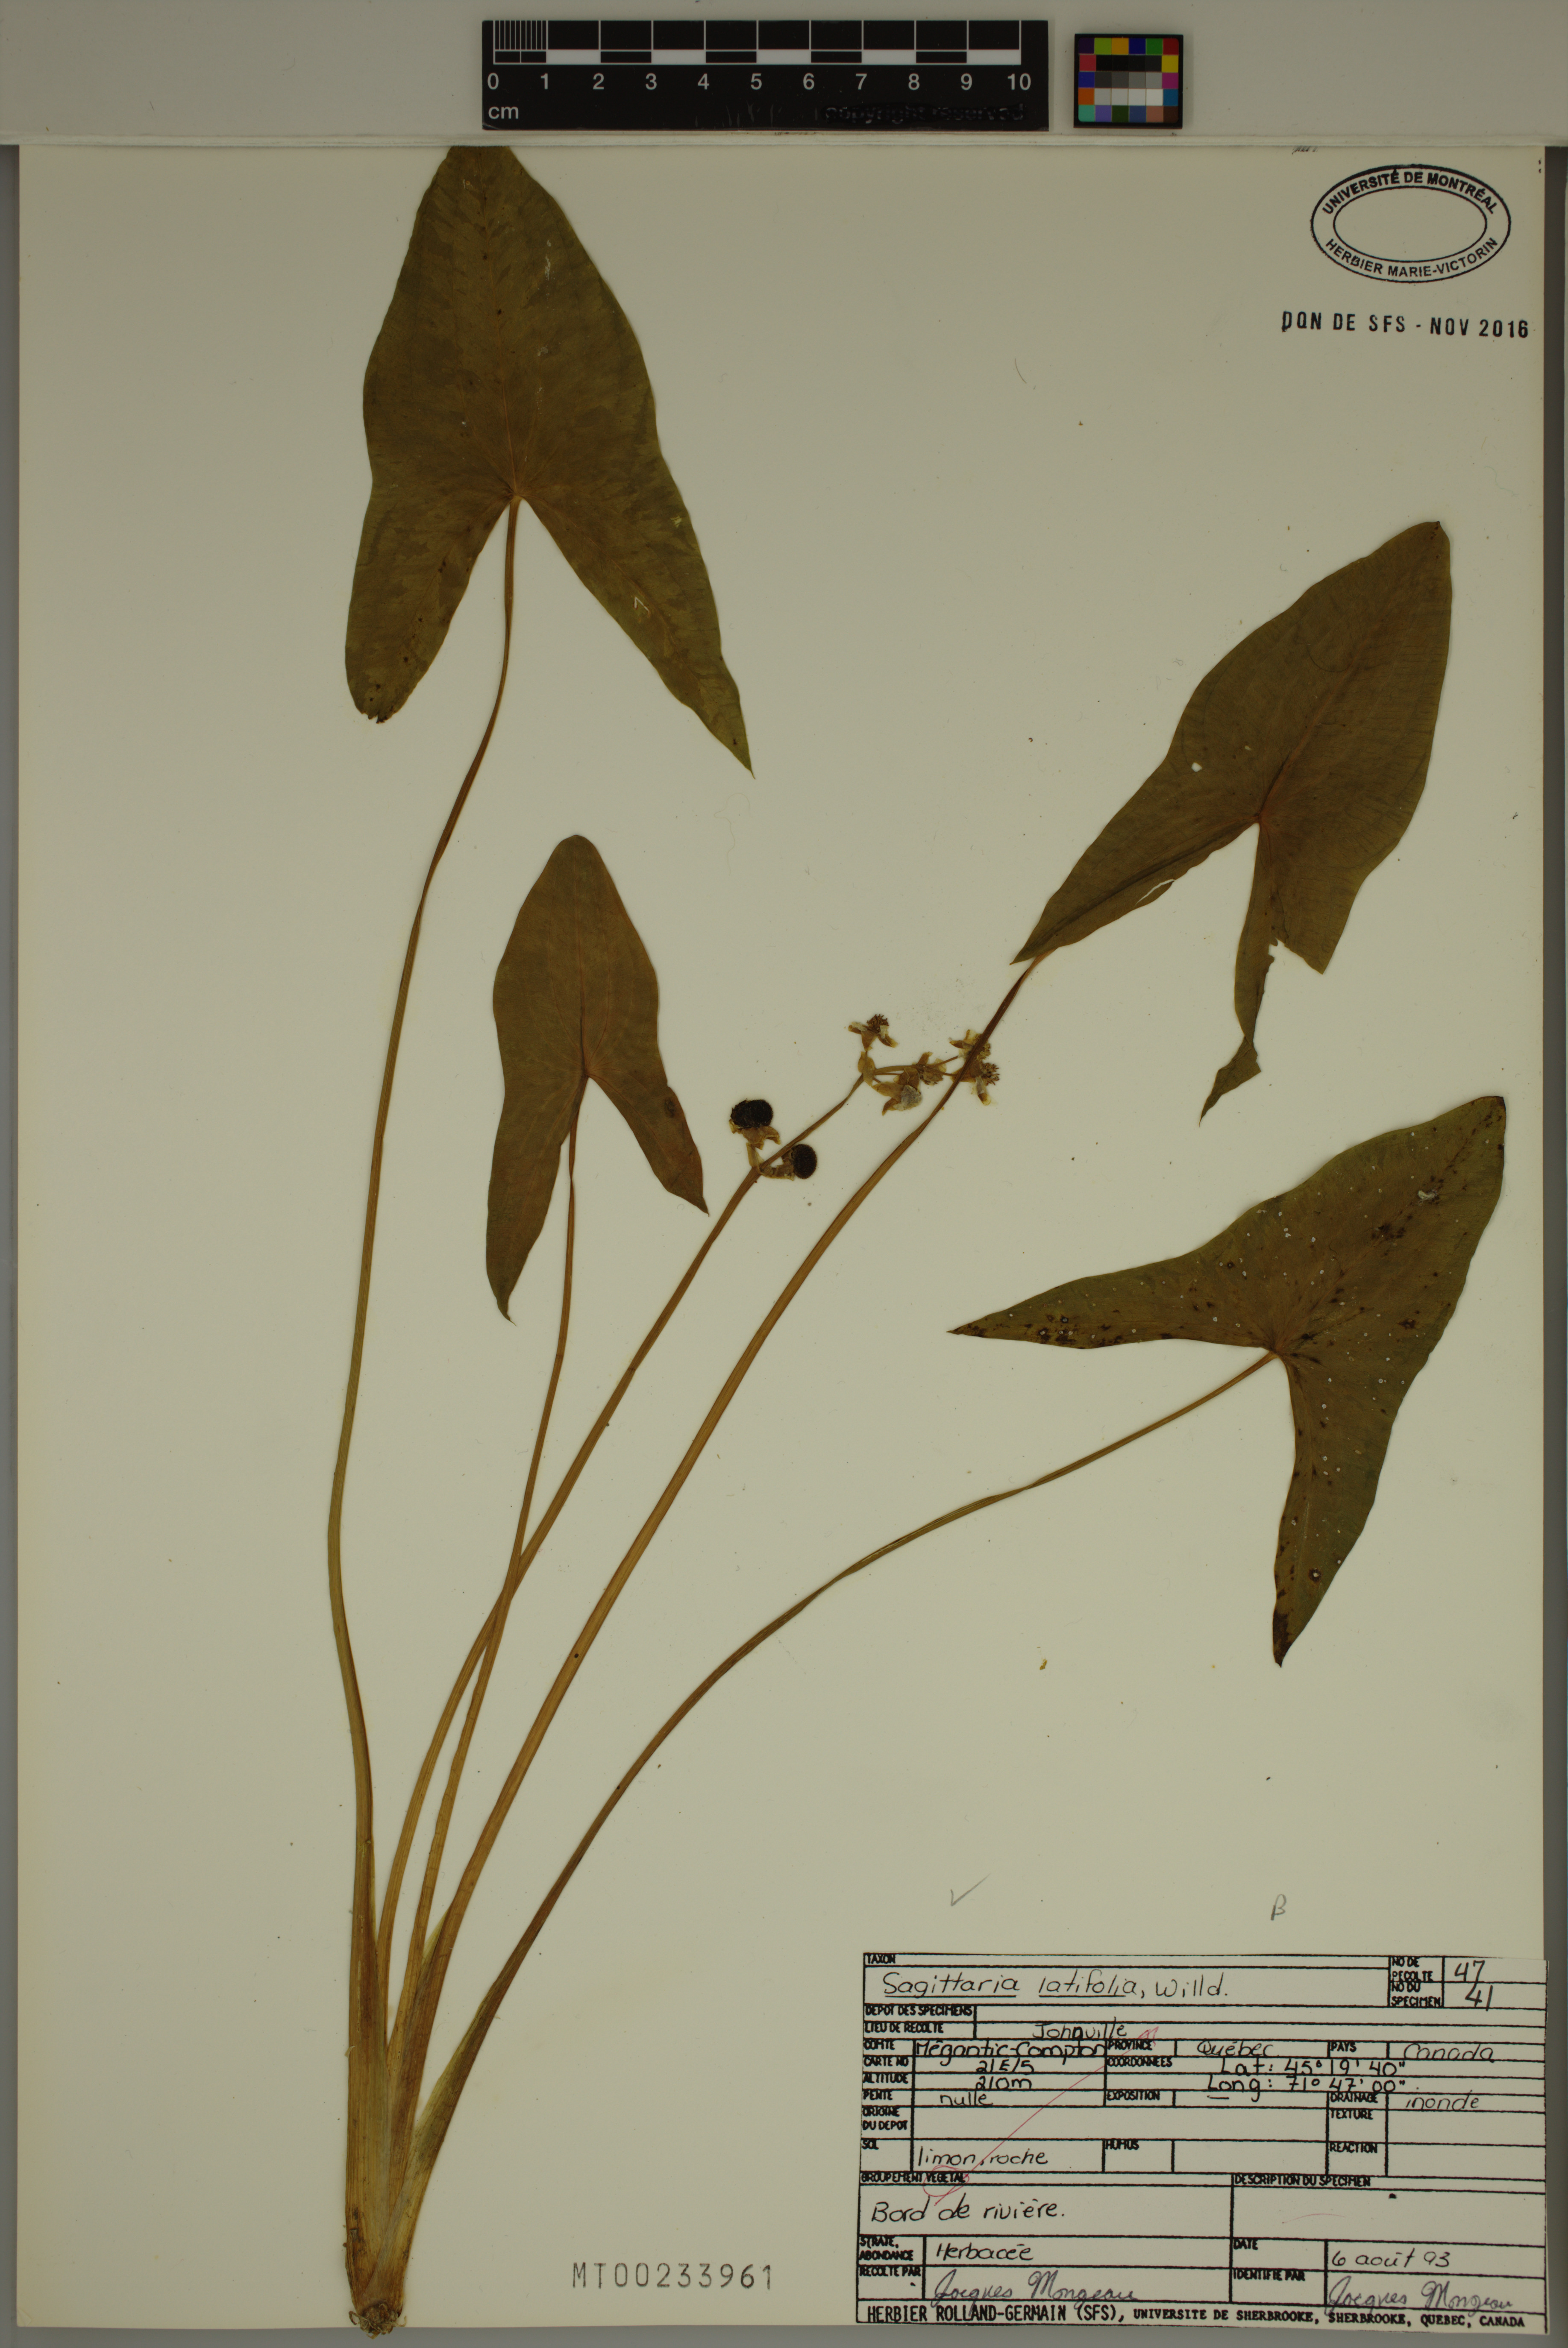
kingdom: Plantae
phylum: Tracheophyta
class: Liliopsida
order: Alismatales
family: Alismataceae
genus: Sagittaria
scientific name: Sagittaria latifolia
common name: Duck-potato
